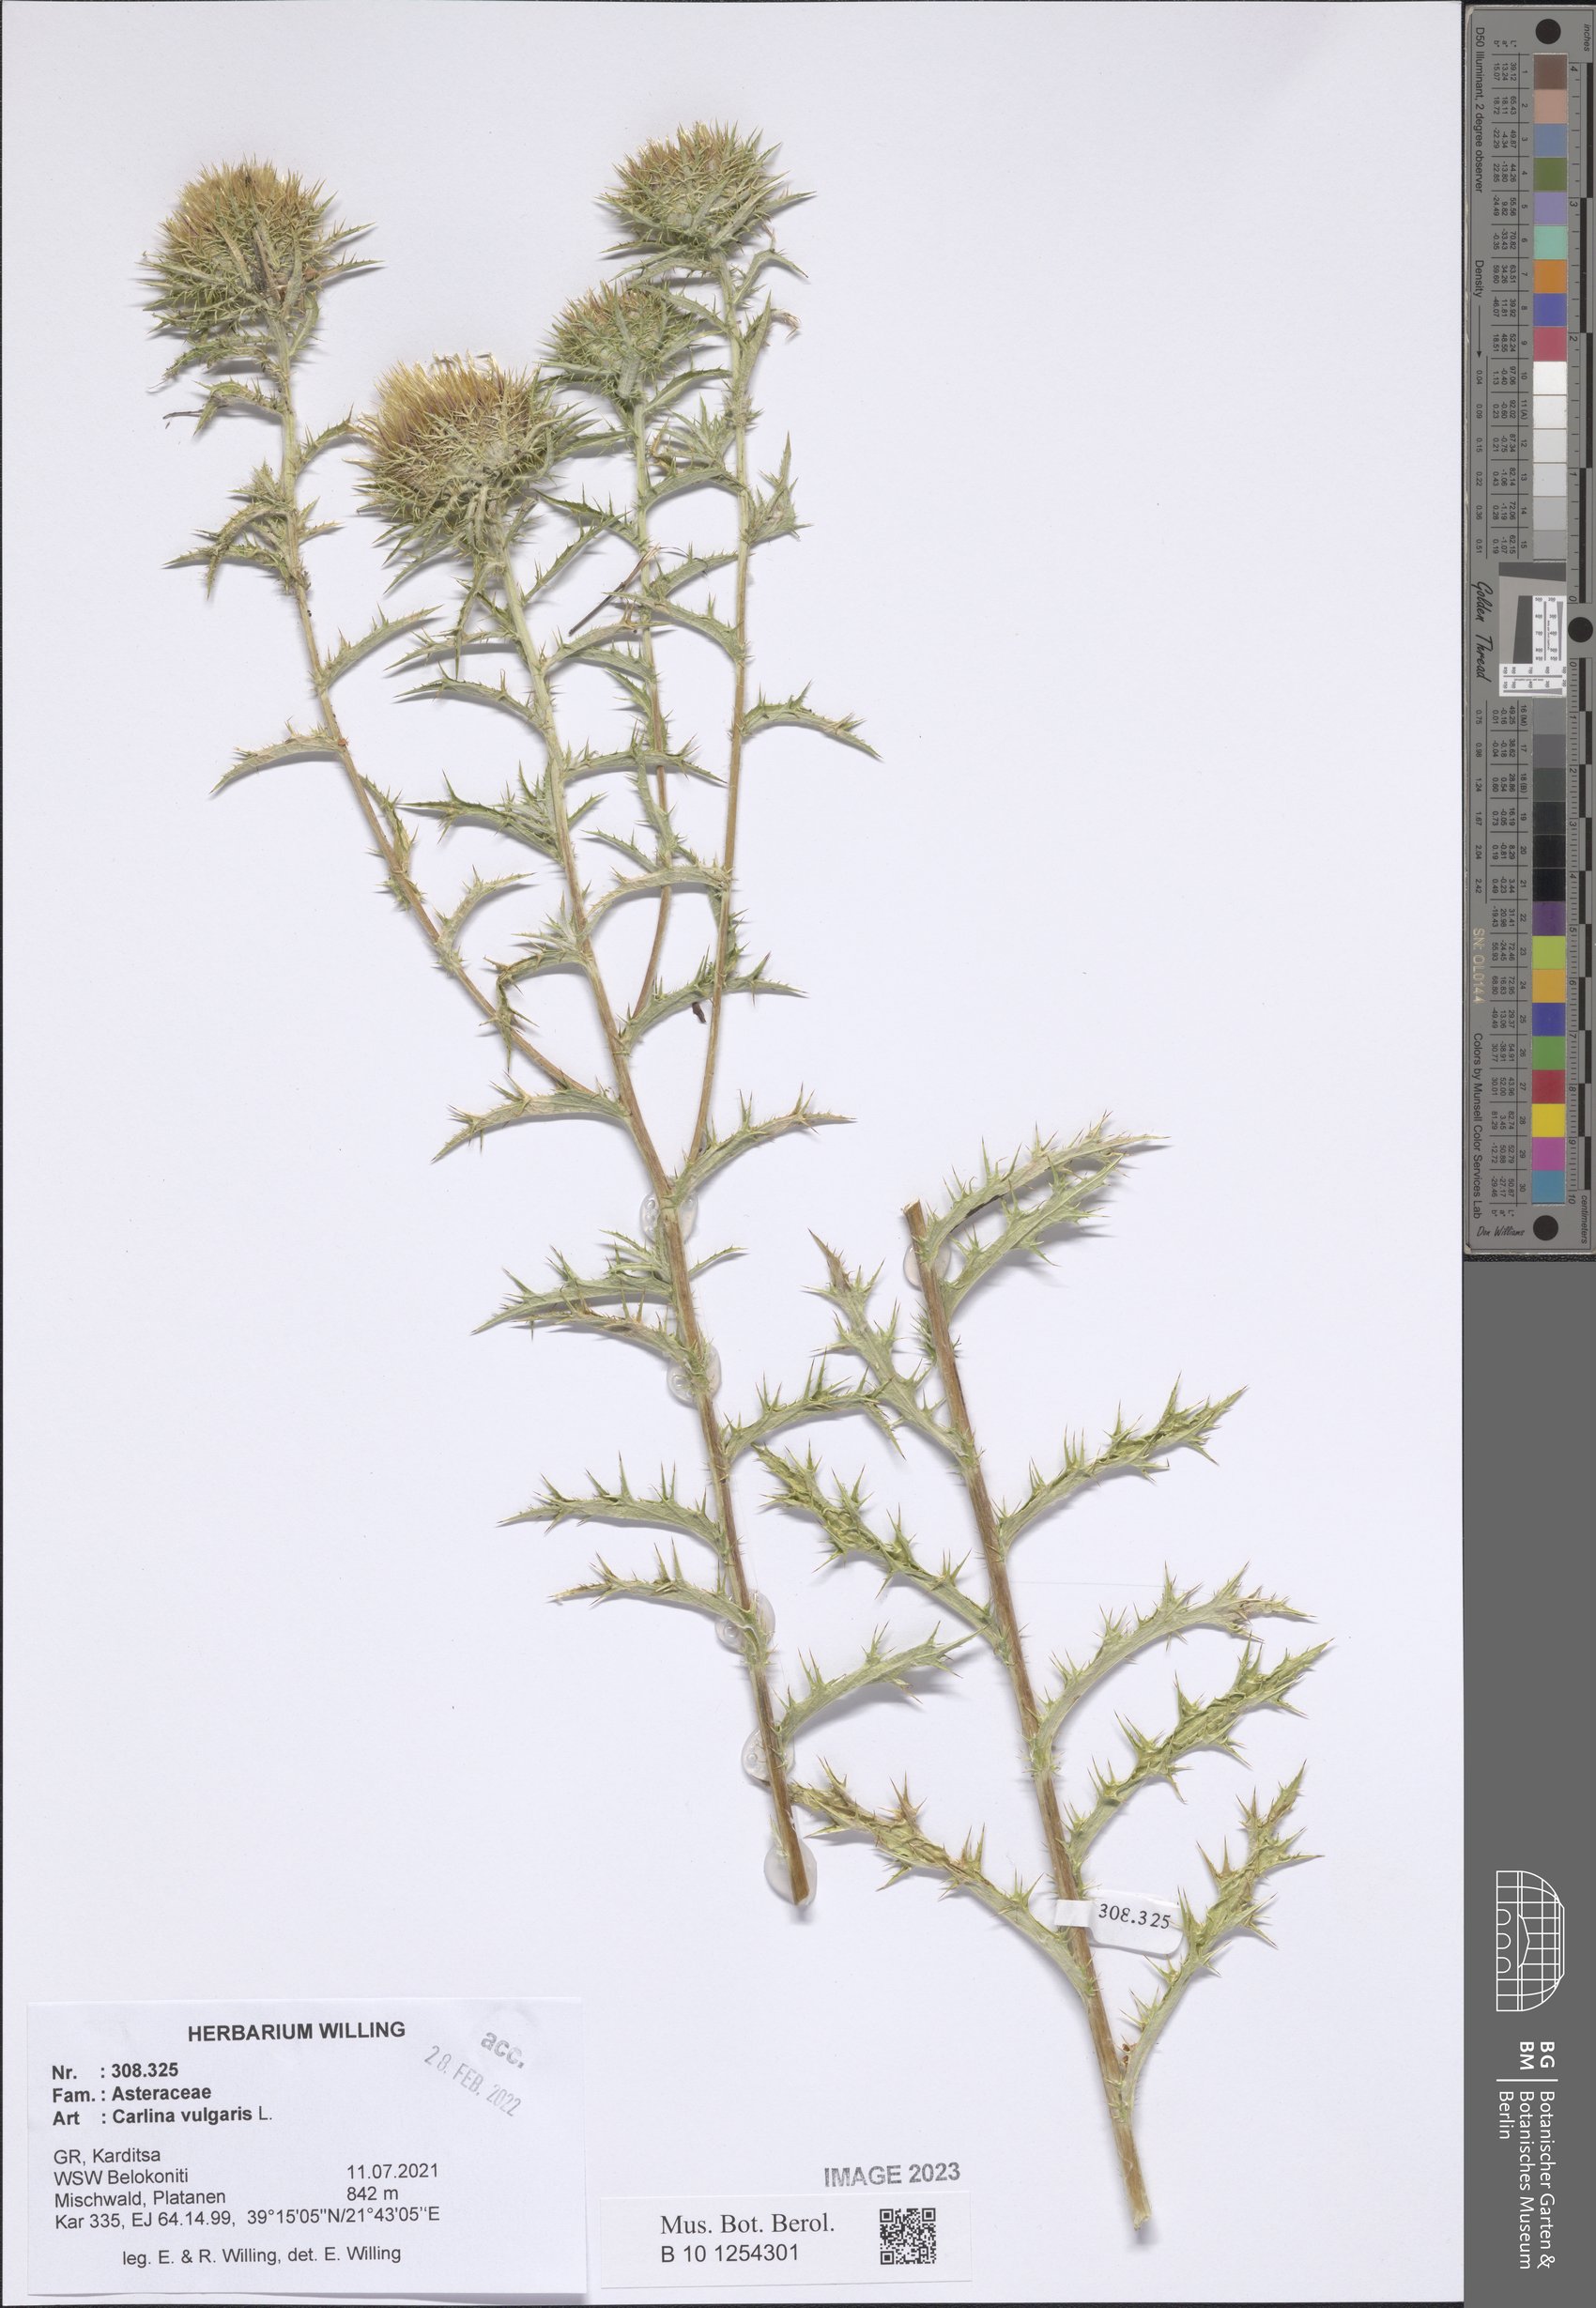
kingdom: Plantae
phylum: Tracheophyta
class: Magnoliopsida
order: Asterales
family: Asteraceae
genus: Carlina
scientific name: Carlina vulgaris
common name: Carline thistle
